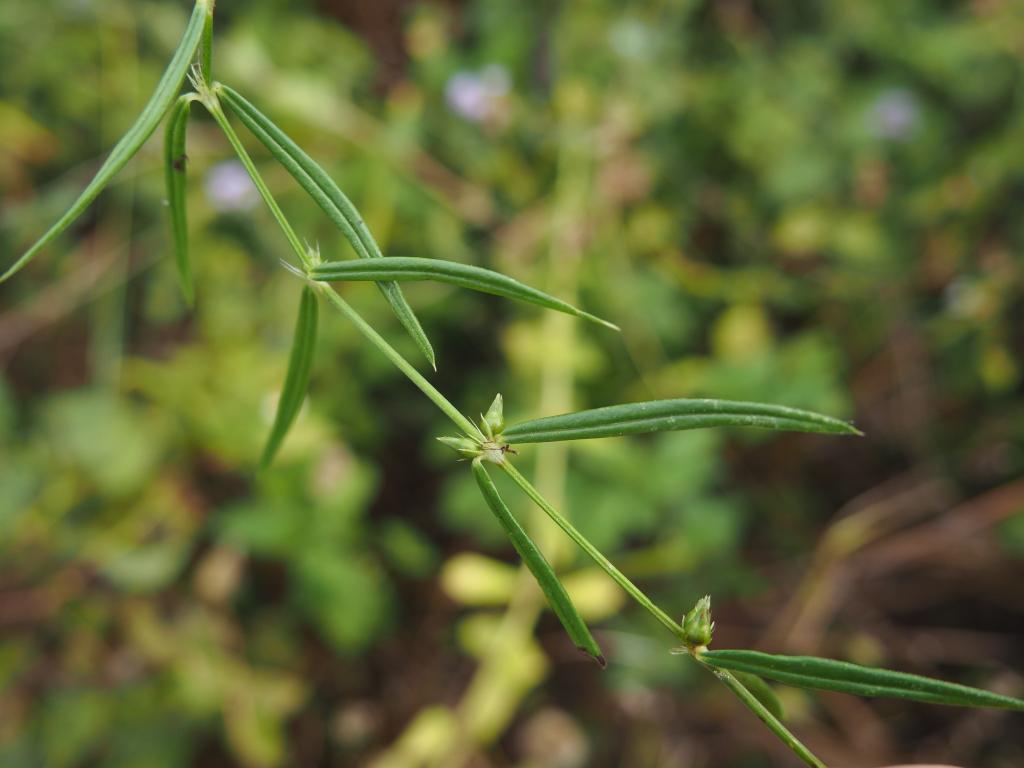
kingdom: Plantae
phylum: Tracheophyta
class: Magnoliopsida
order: Gentianales
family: Rubiaceae
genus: Scleromitrion
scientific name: Scleromitrion tenelliflorum
